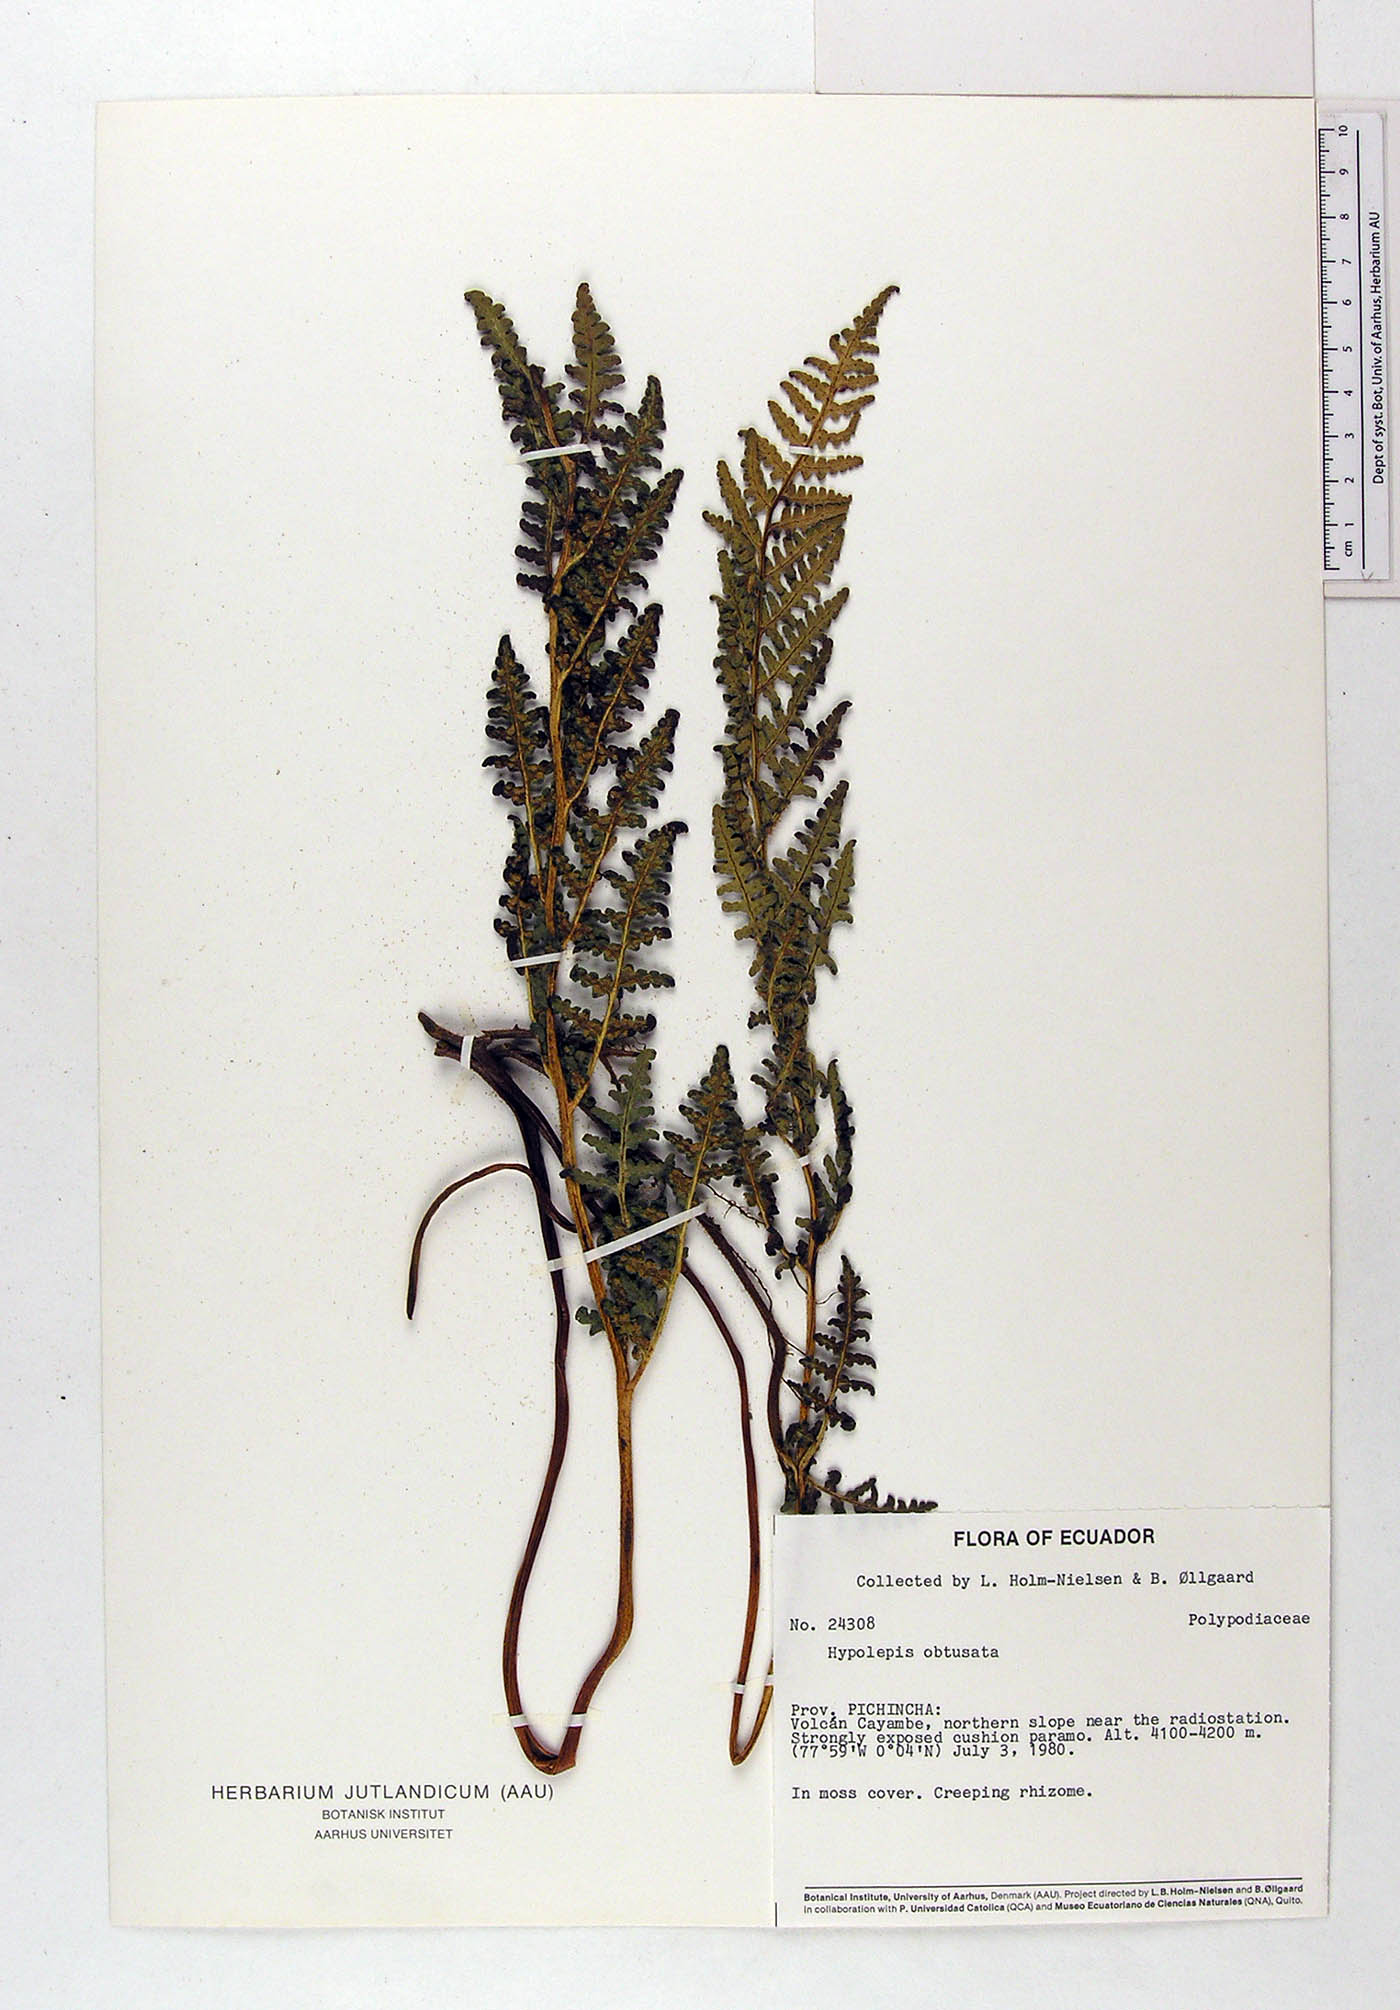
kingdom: Plantae
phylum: Tracheophyta
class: Polypodiopsida
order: Polypodiales
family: Dennstaedtiaceae
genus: Hypolepis
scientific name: Hypolepis obtusata
